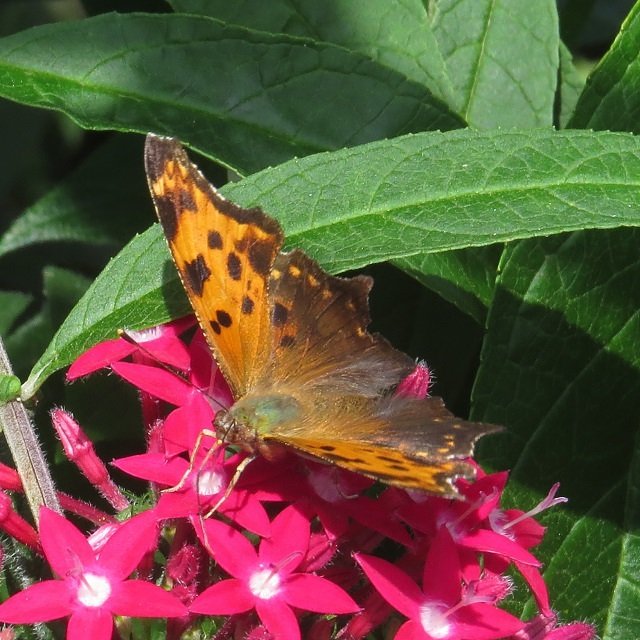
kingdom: Animalia
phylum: Arthropoda
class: Insecta
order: Lepidoptera
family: Nymphalidae
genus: Polygonia
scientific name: Polygonia comma
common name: Eastern Comma
